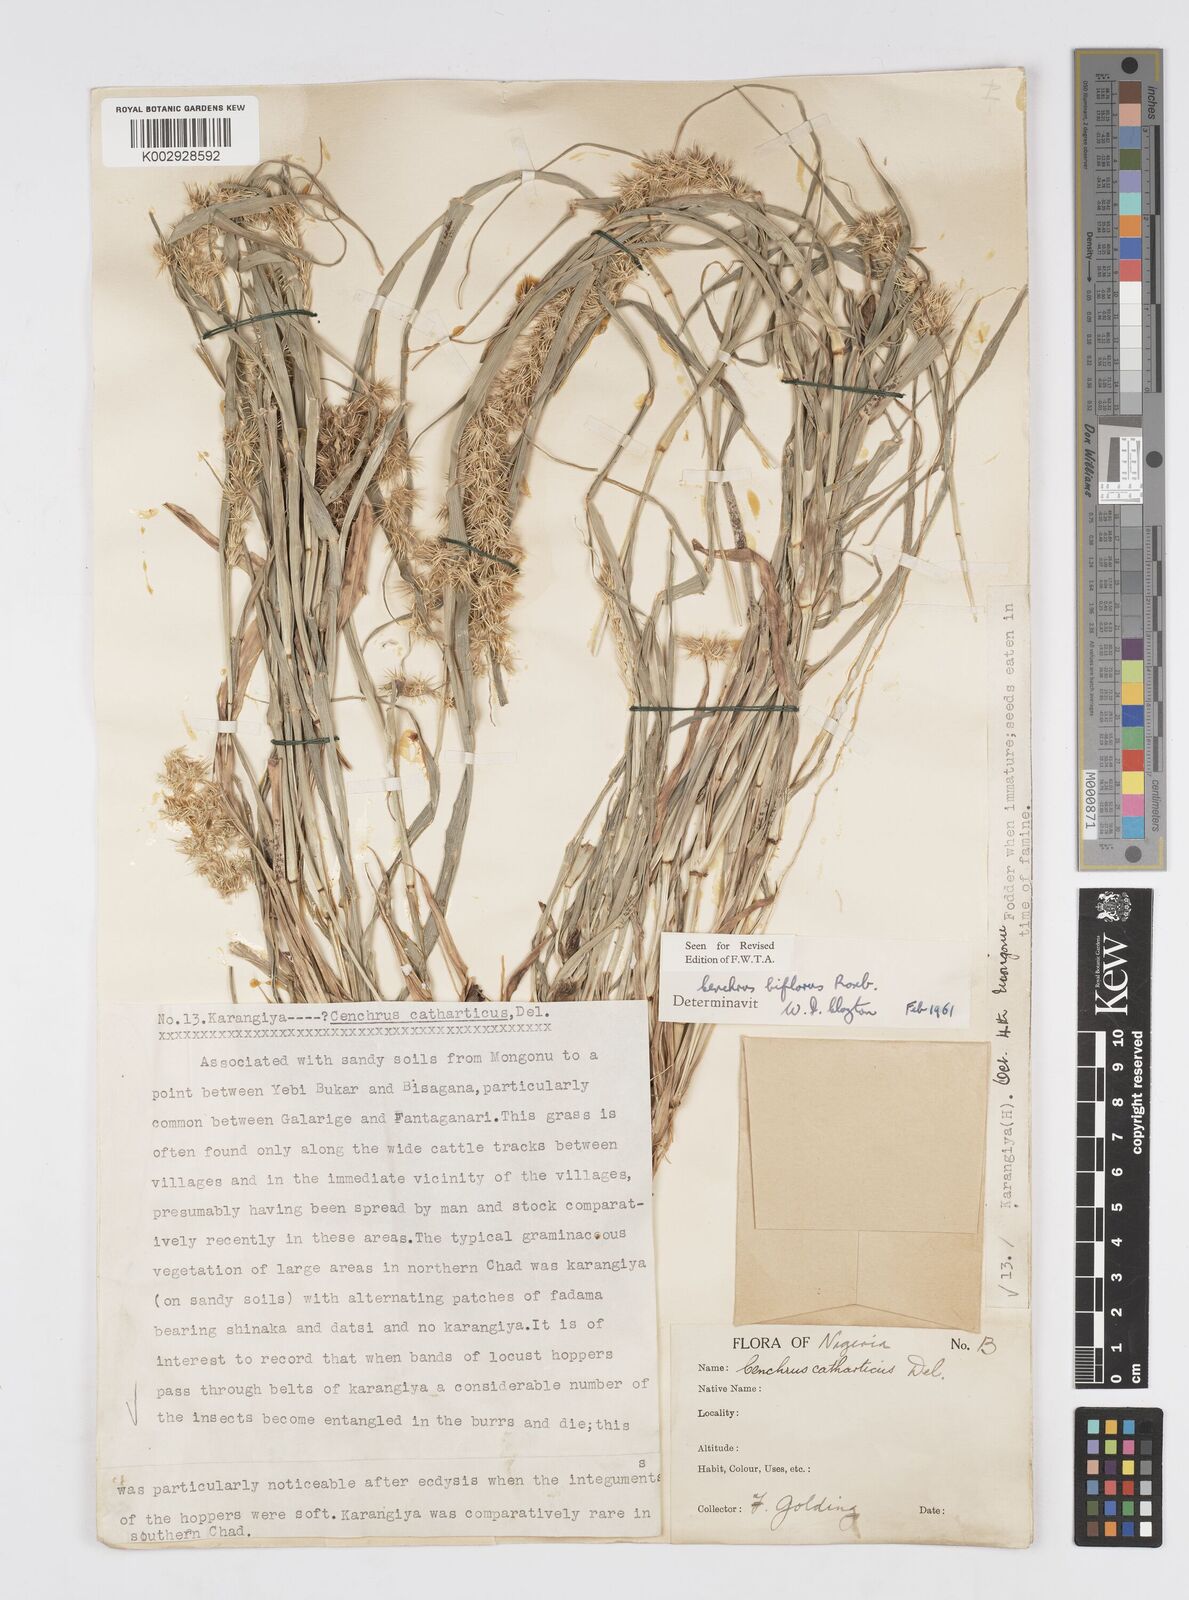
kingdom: Plantae
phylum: Tracheophyta
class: Liliopsida
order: Poales
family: Poaceae
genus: Cenchrus
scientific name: Cenchrus biflorus
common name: Indian sandbur
